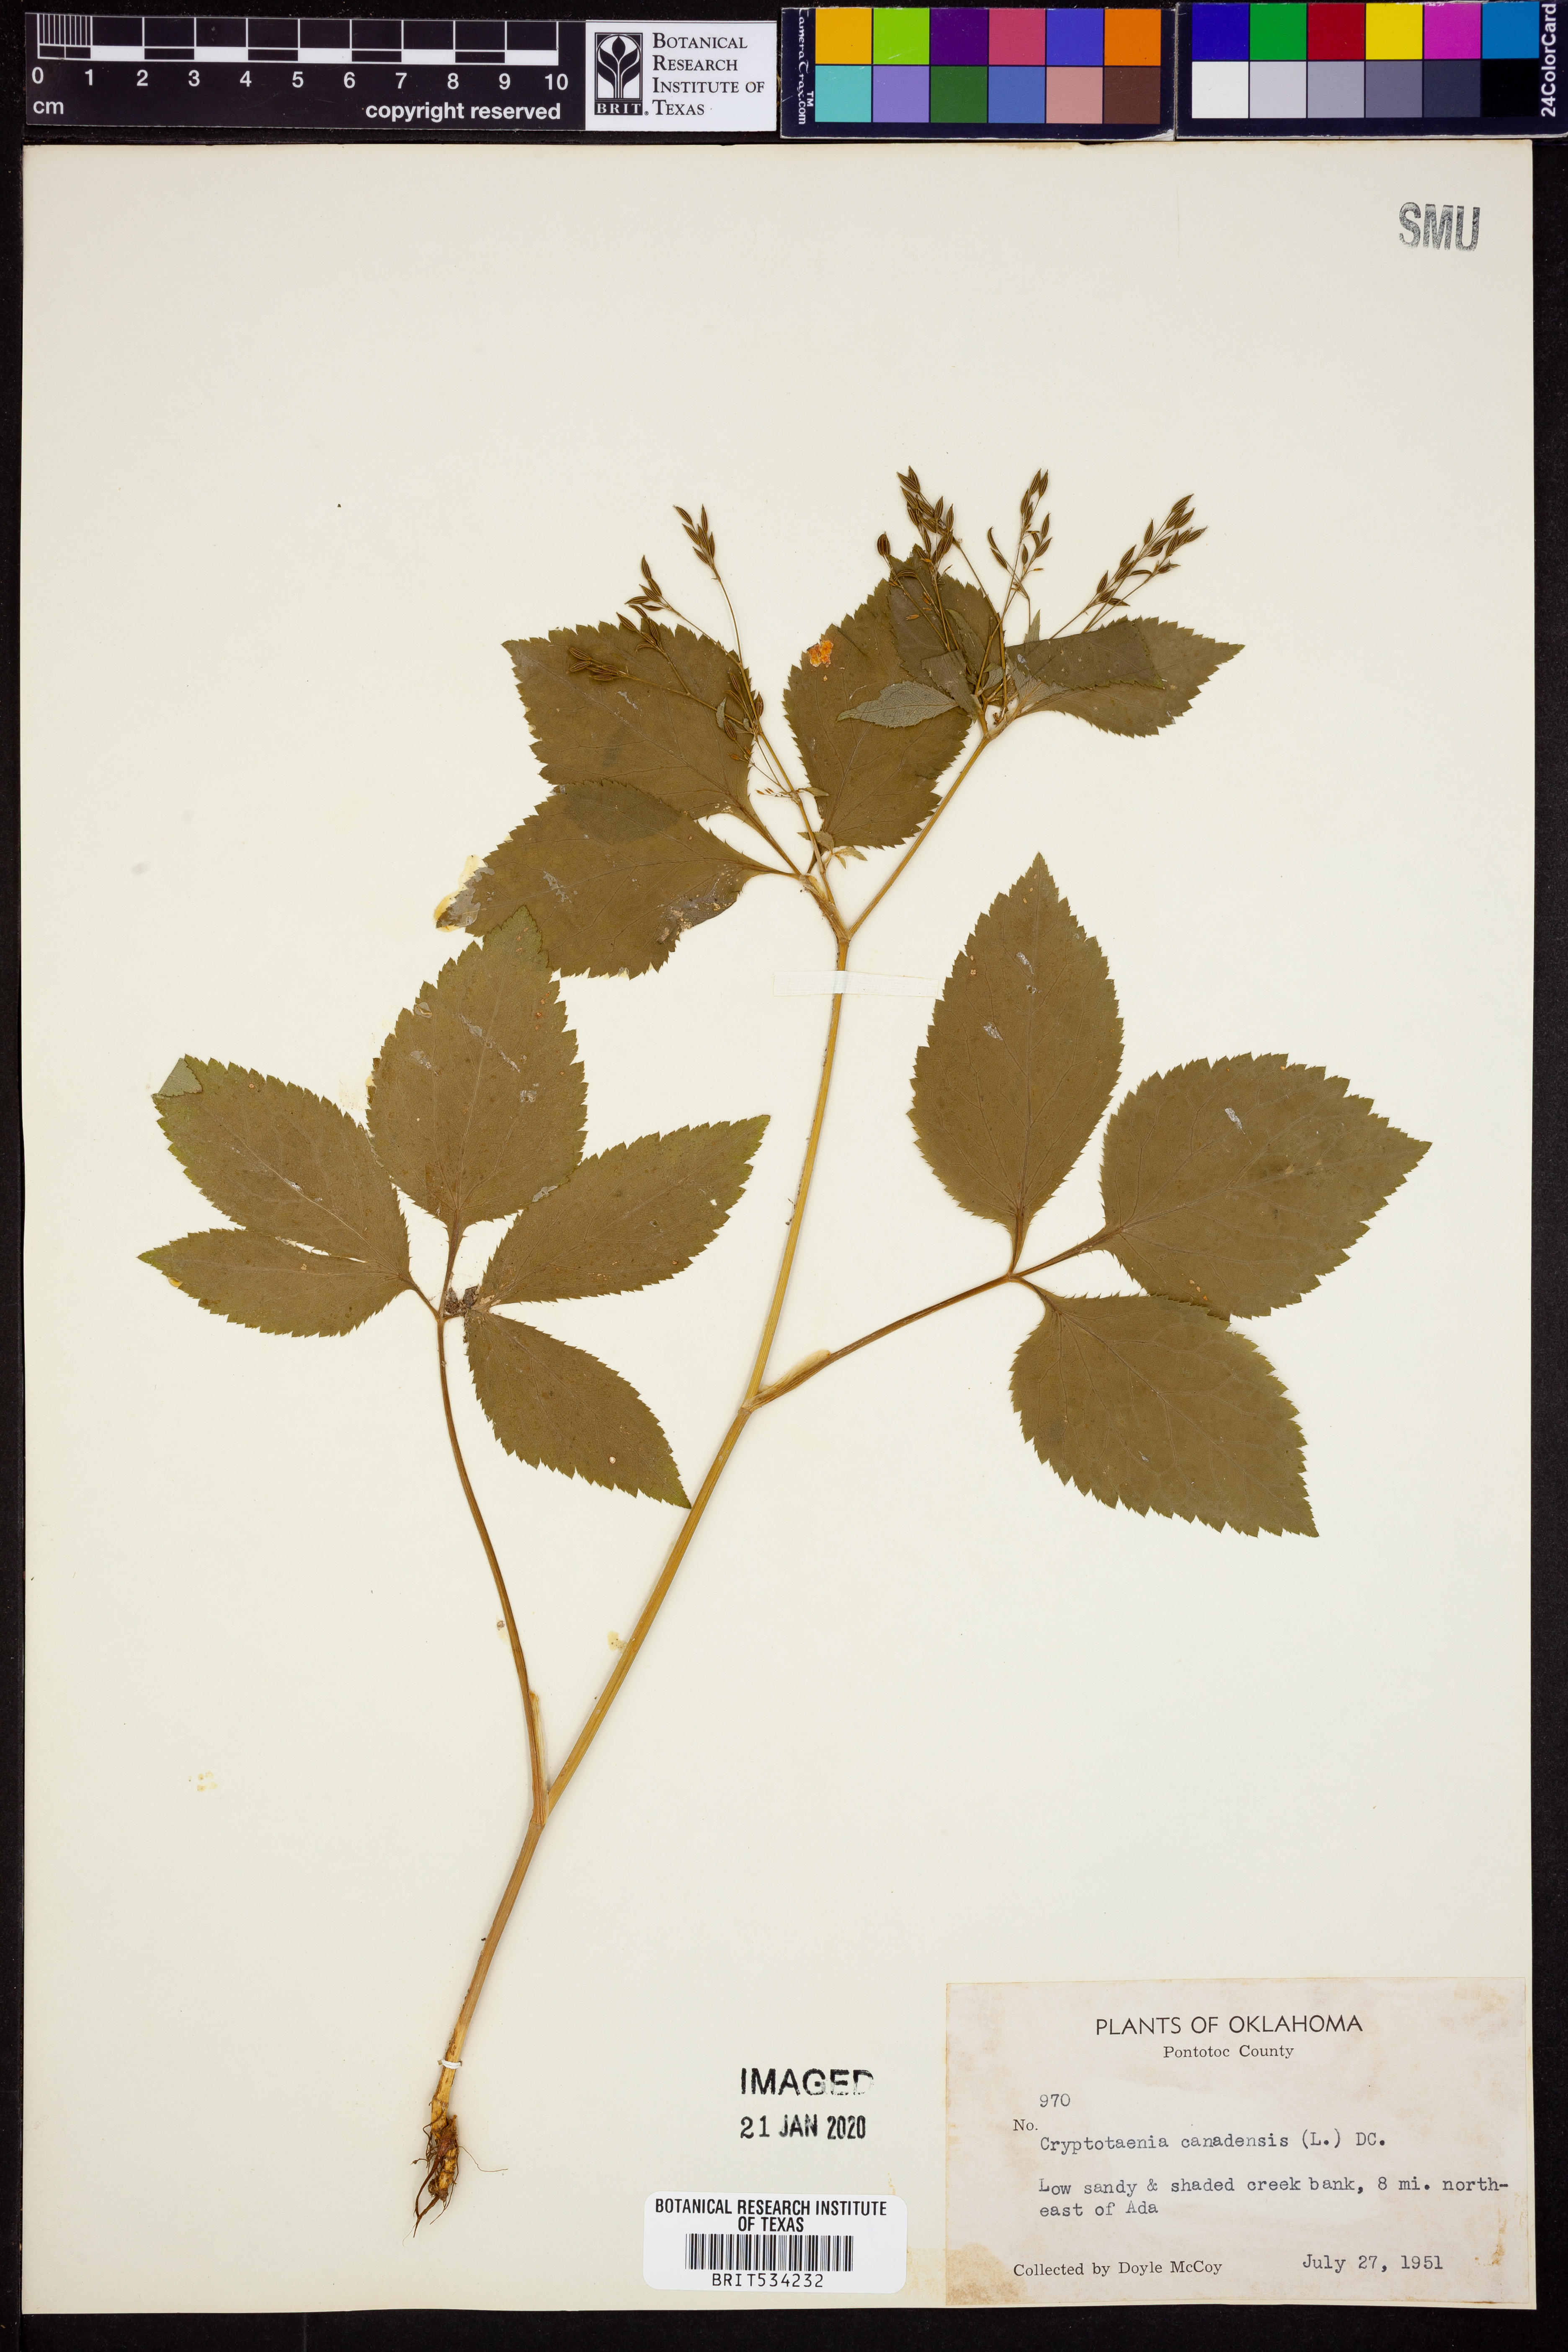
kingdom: Plantae
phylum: Tracheophyta
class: Magnoliopsida
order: Apiales
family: Apiaceae
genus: Cryptotaenia
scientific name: Cryptotaenia canadensis
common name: Honewort
